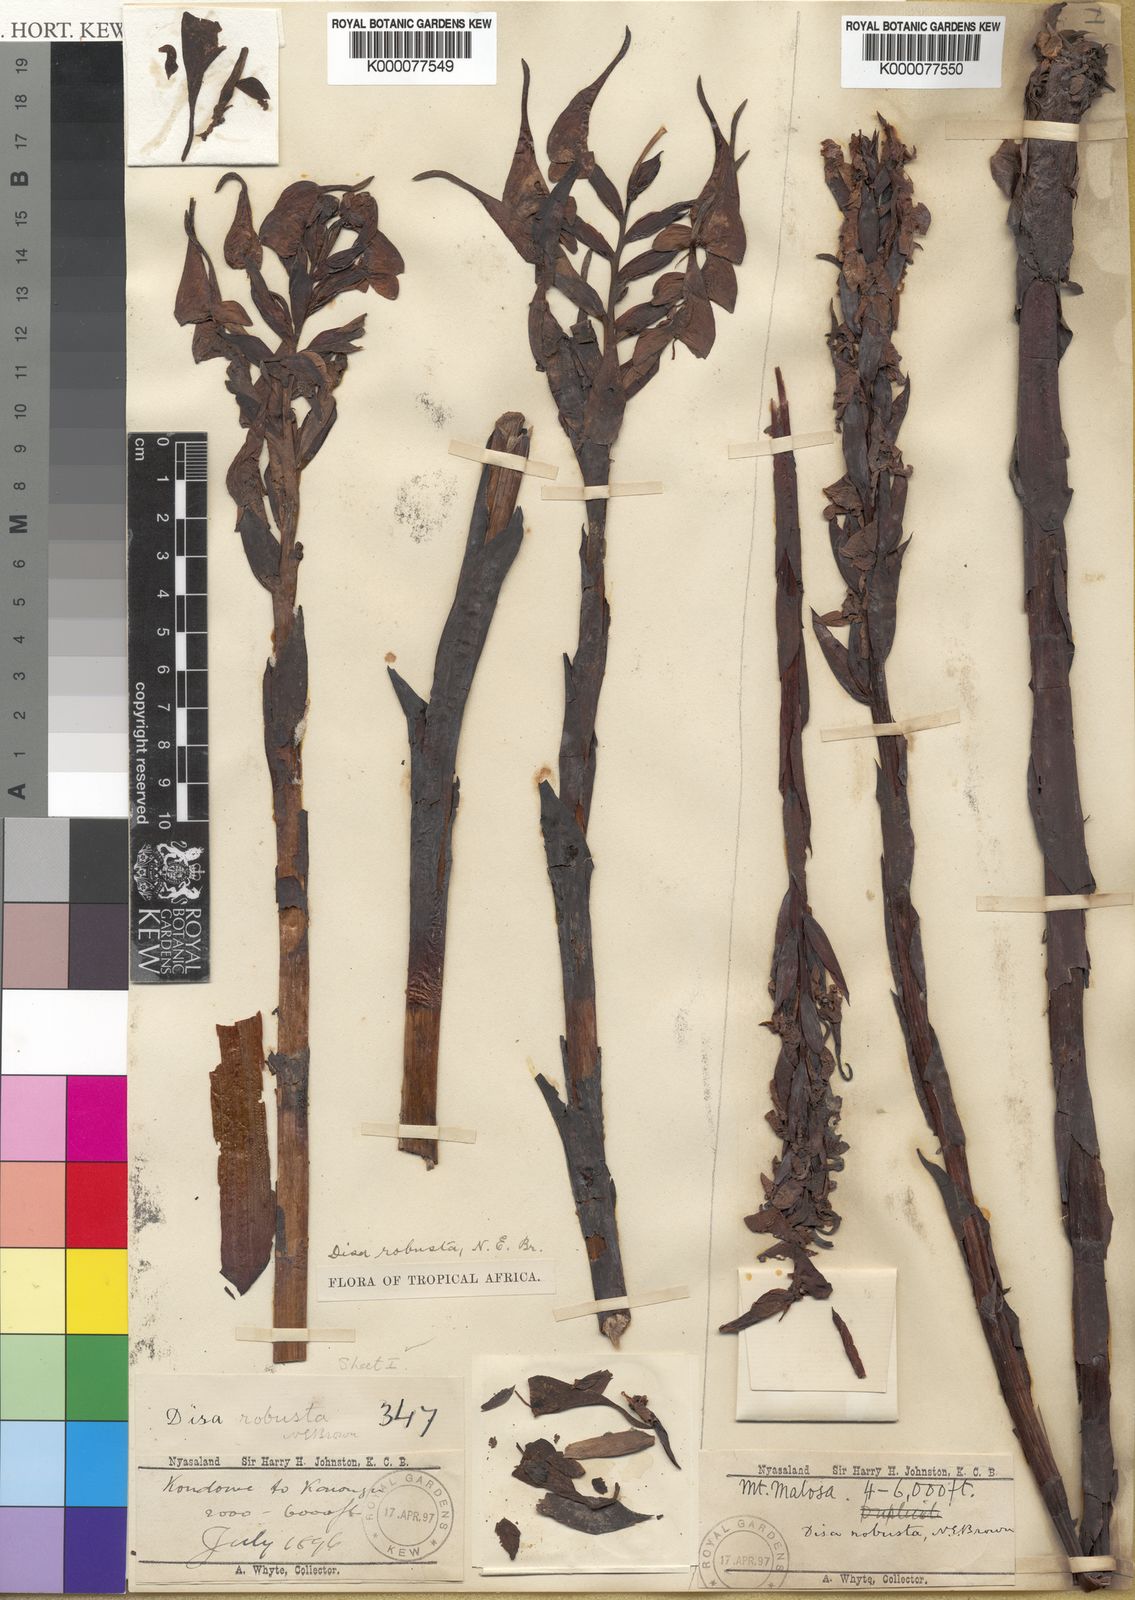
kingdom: Plantae
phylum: Tracheophyta
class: Liliopsida
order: Asparagales
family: Orchidaceae
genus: Disa
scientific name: Disa robusta
